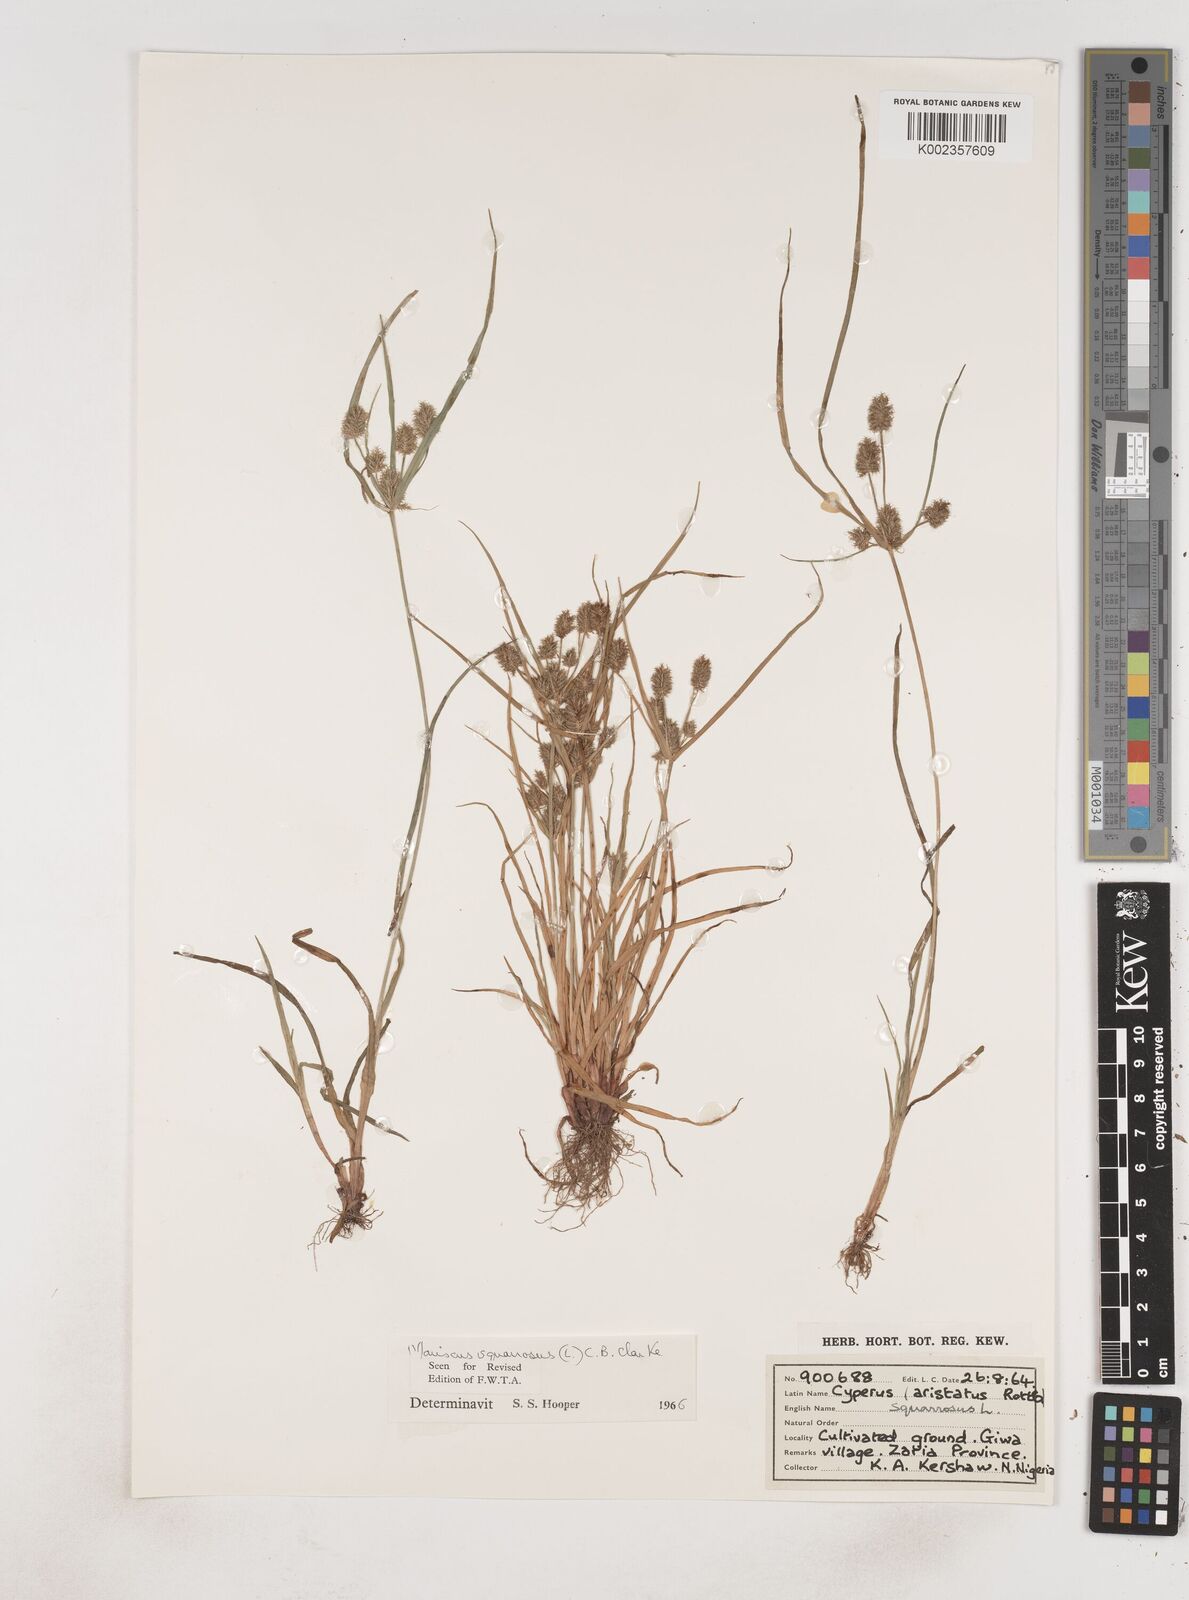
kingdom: Plantae
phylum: Tracheophyta
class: Liliopsida
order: Poales
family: Cyperaceae
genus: Cyperus
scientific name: Cyperus squarrosus
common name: Awned cyperus
